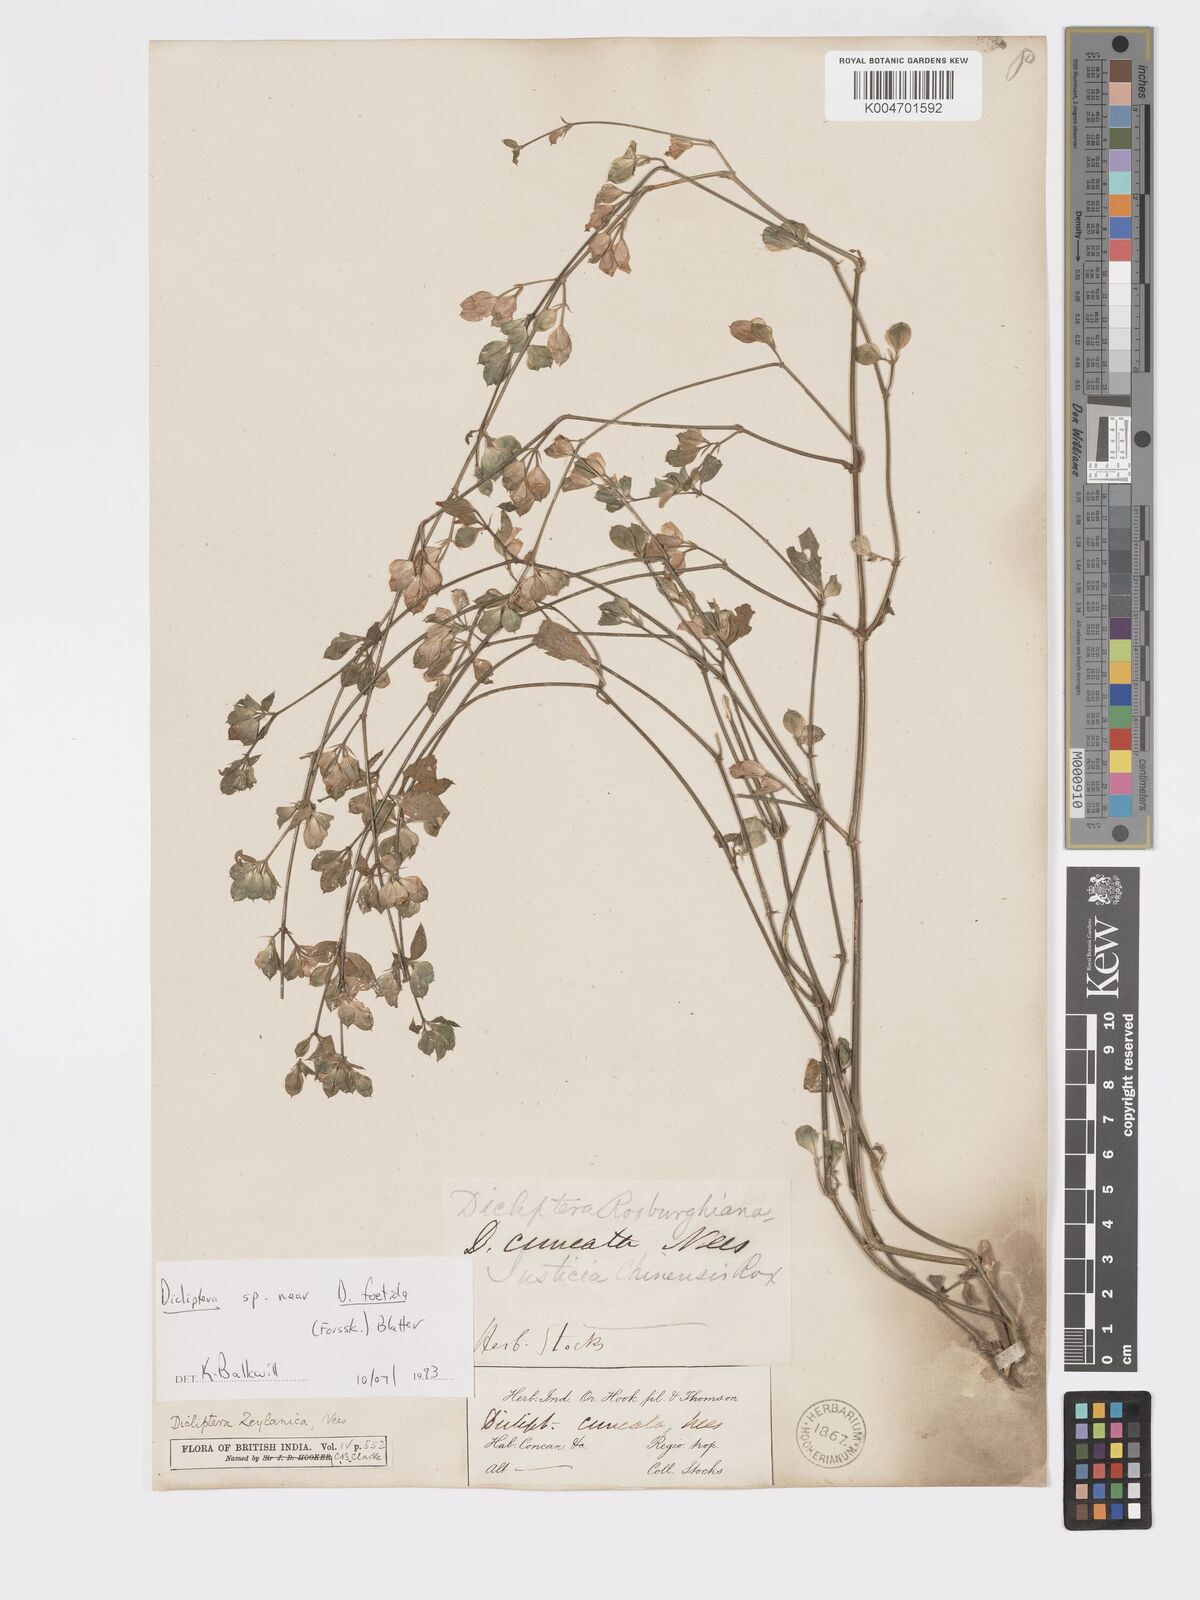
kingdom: Plantae
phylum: Tracheophyta
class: Magnoliopsida
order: Lamiales
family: Acanthaceae
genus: Dicliptera
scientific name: Dicliptera foetida
